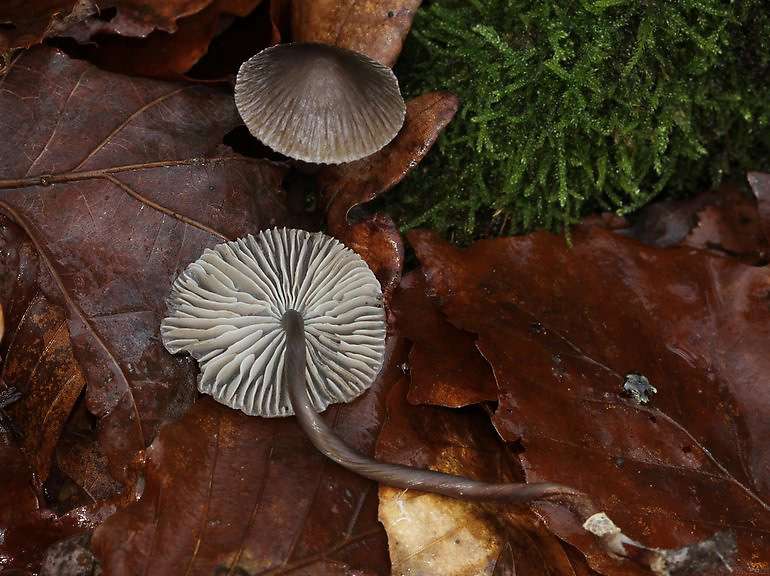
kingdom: Fungi
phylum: Basidiomycota
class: Agaricomycetes
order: Agaricales
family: Mycenaceae
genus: Mycena
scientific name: Mycena polygramma
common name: mangestribet huesvamp
